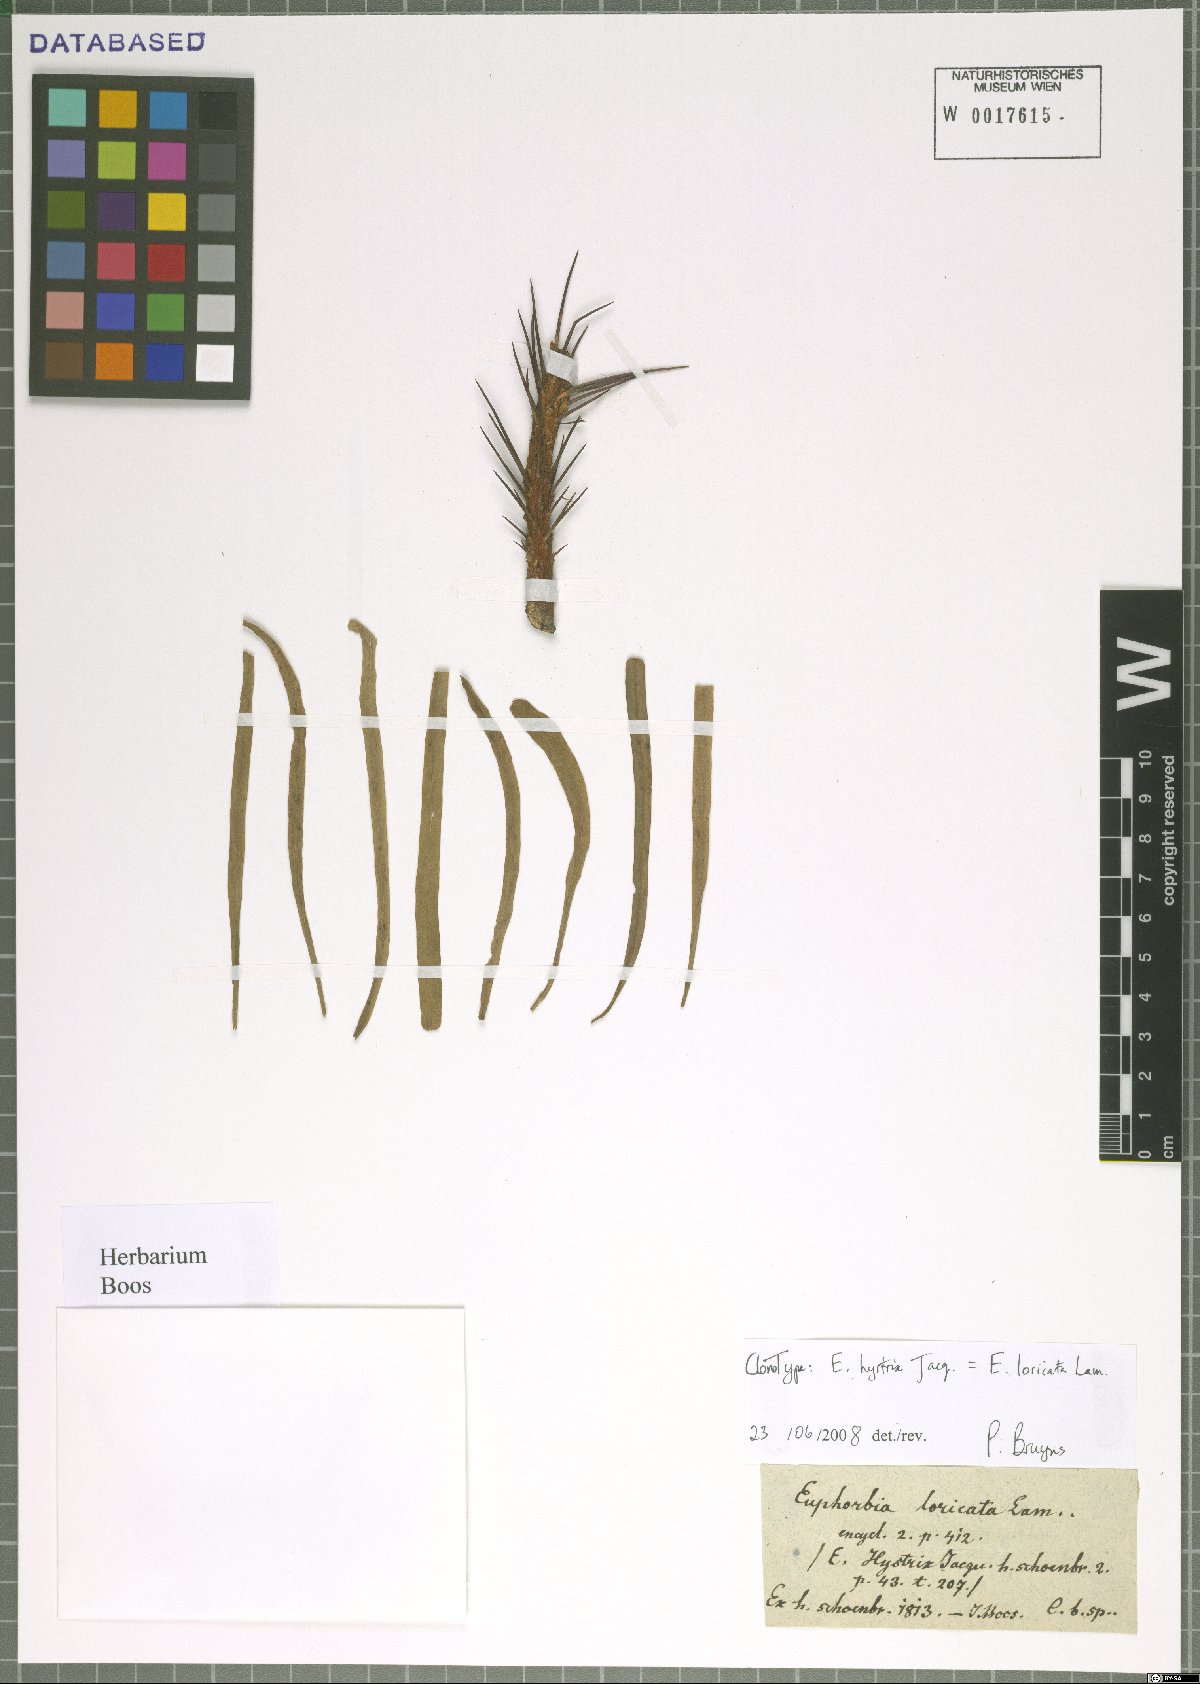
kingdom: Plantae
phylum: Tracheophyta
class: Magnoliopsida
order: Malpighiales
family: Euphorbiaceae
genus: Euphorbia
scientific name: Euphorbia loricata
